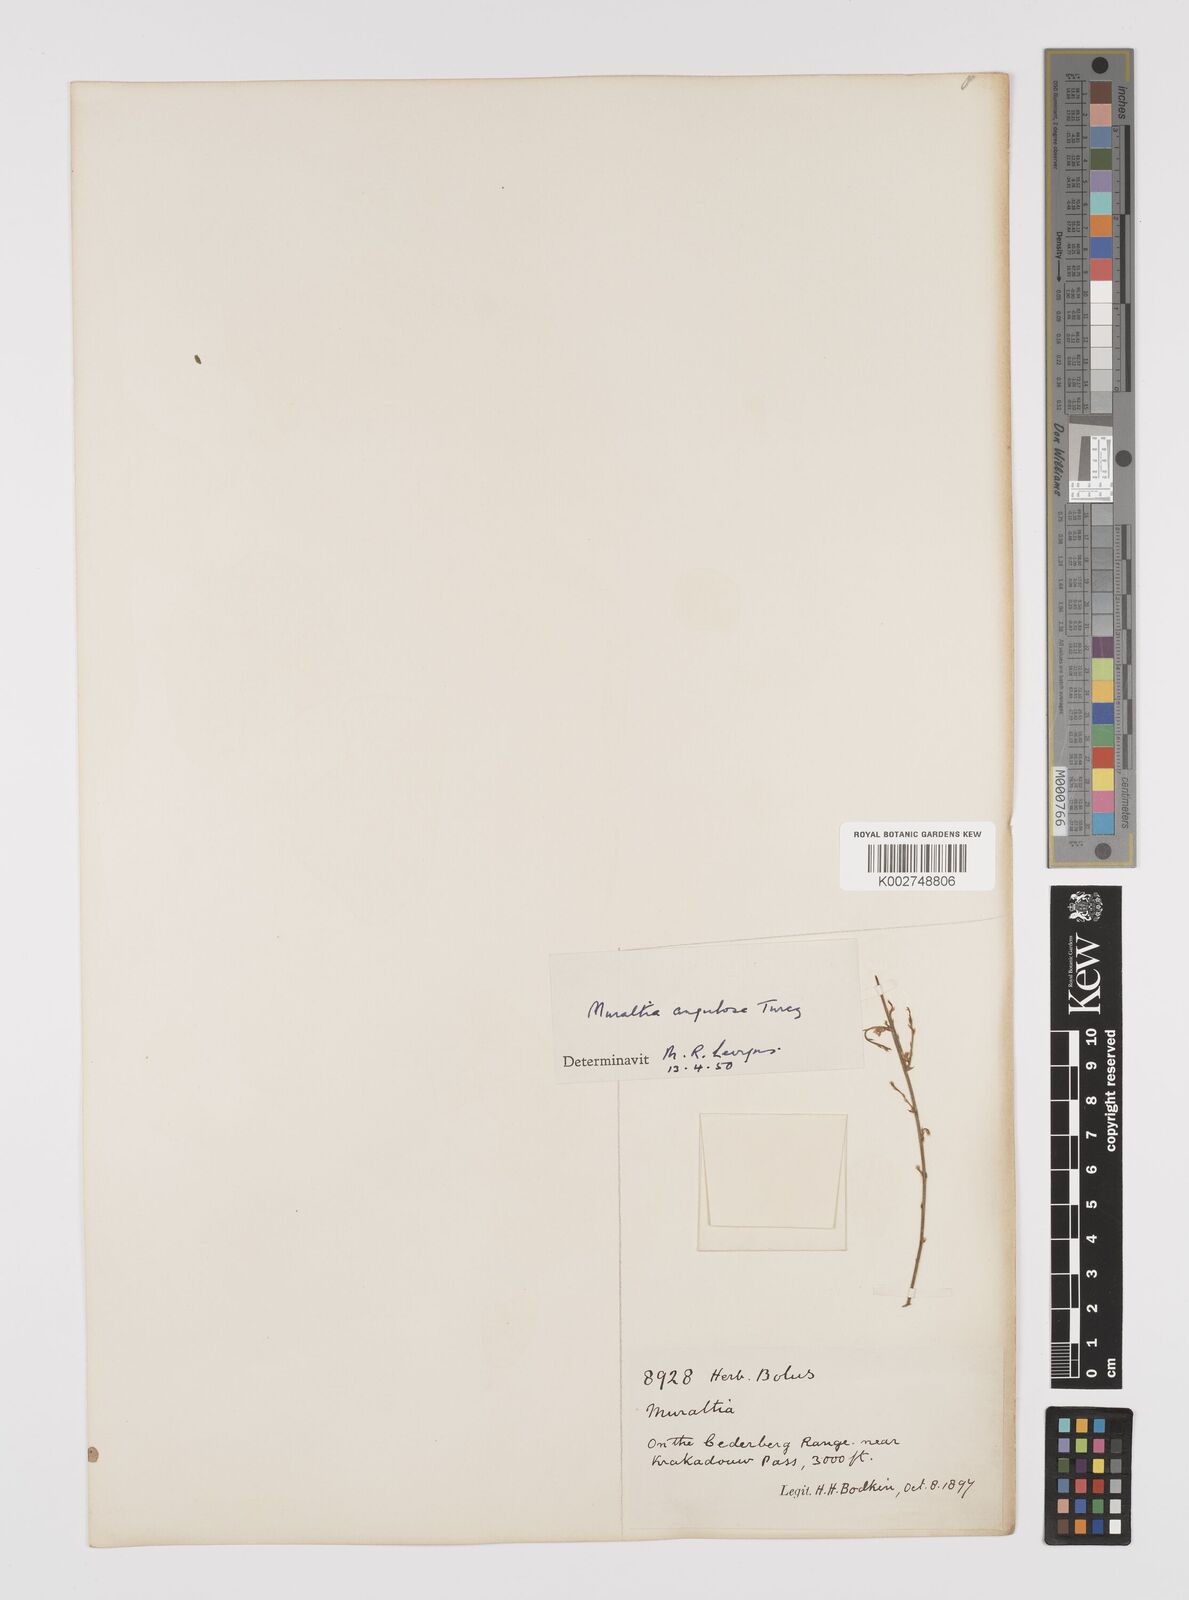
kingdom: Plantae
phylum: Tracheophyta
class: Magnoliopsida
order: Fabales
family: Polygalaceae
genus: Muraltia
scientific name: Muraltia angulosa
